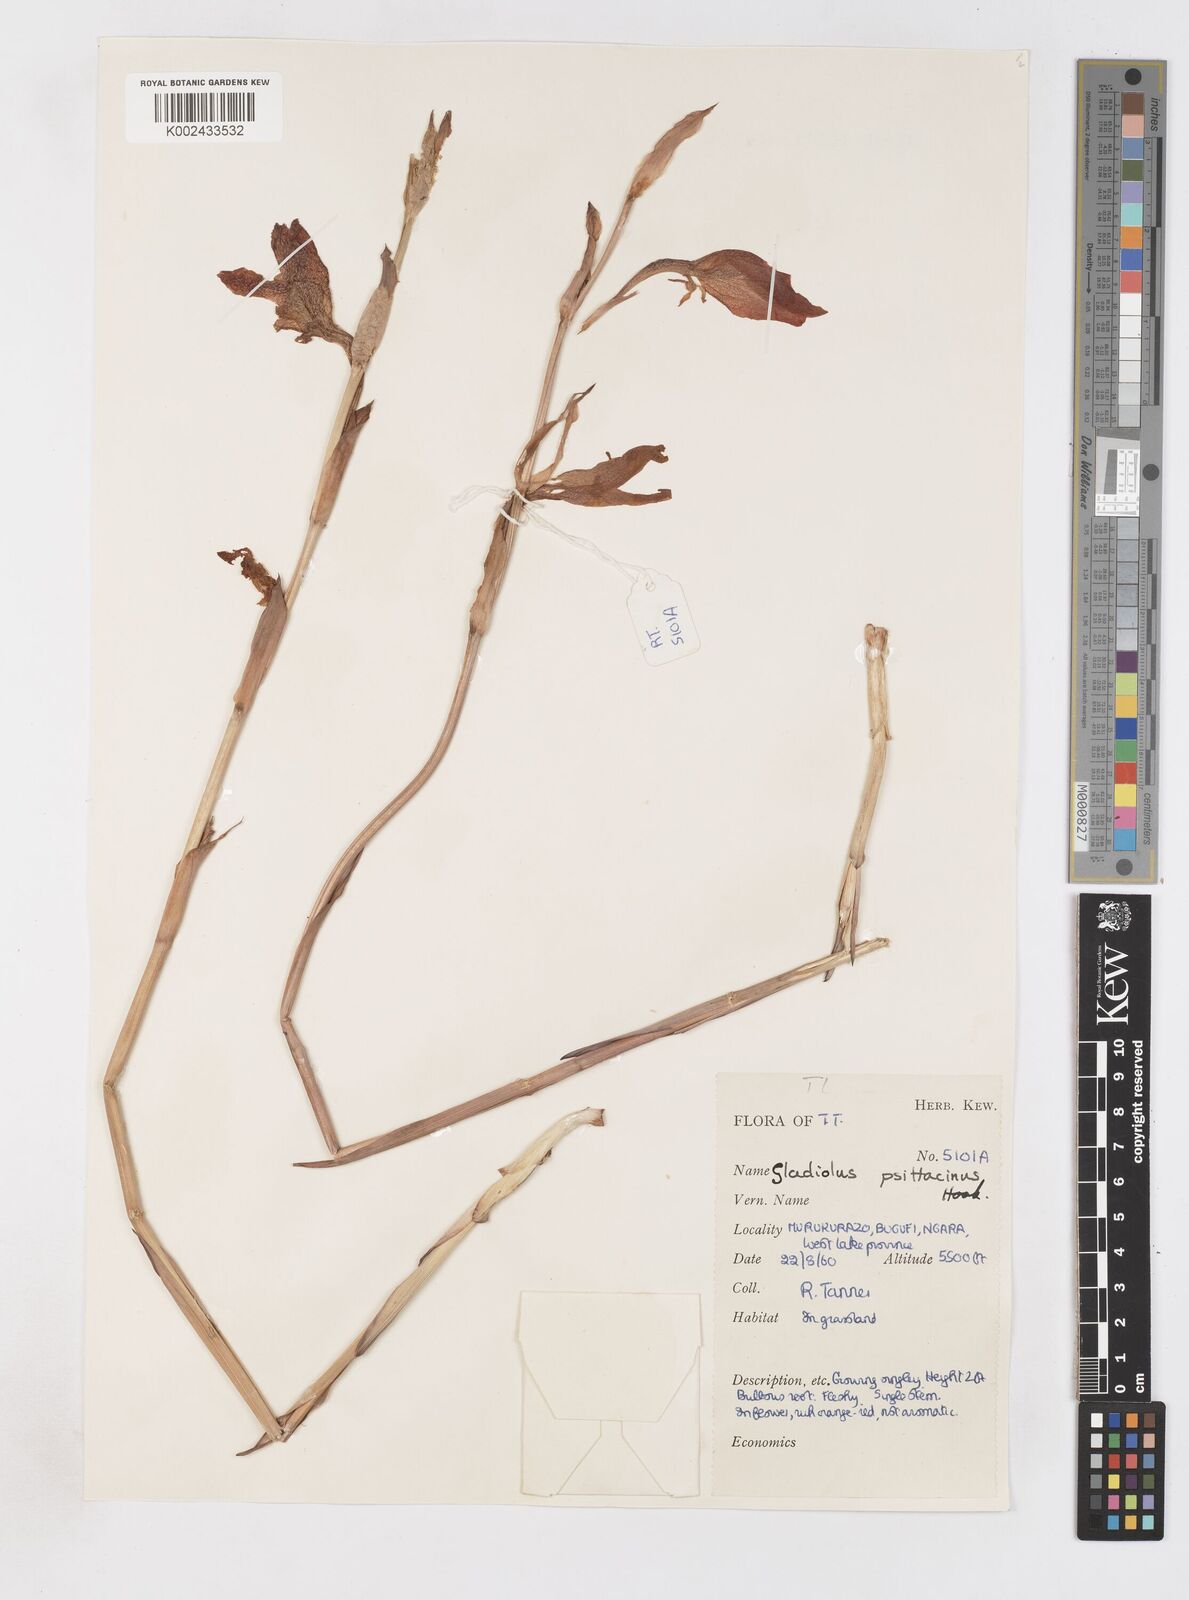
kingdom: Plantae
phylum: Tracheophyta
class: Liliopsida
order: Asparagales
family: Iridaceae
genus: Gladiolus
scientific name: Gladiolus dalenii
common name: Cornflag
